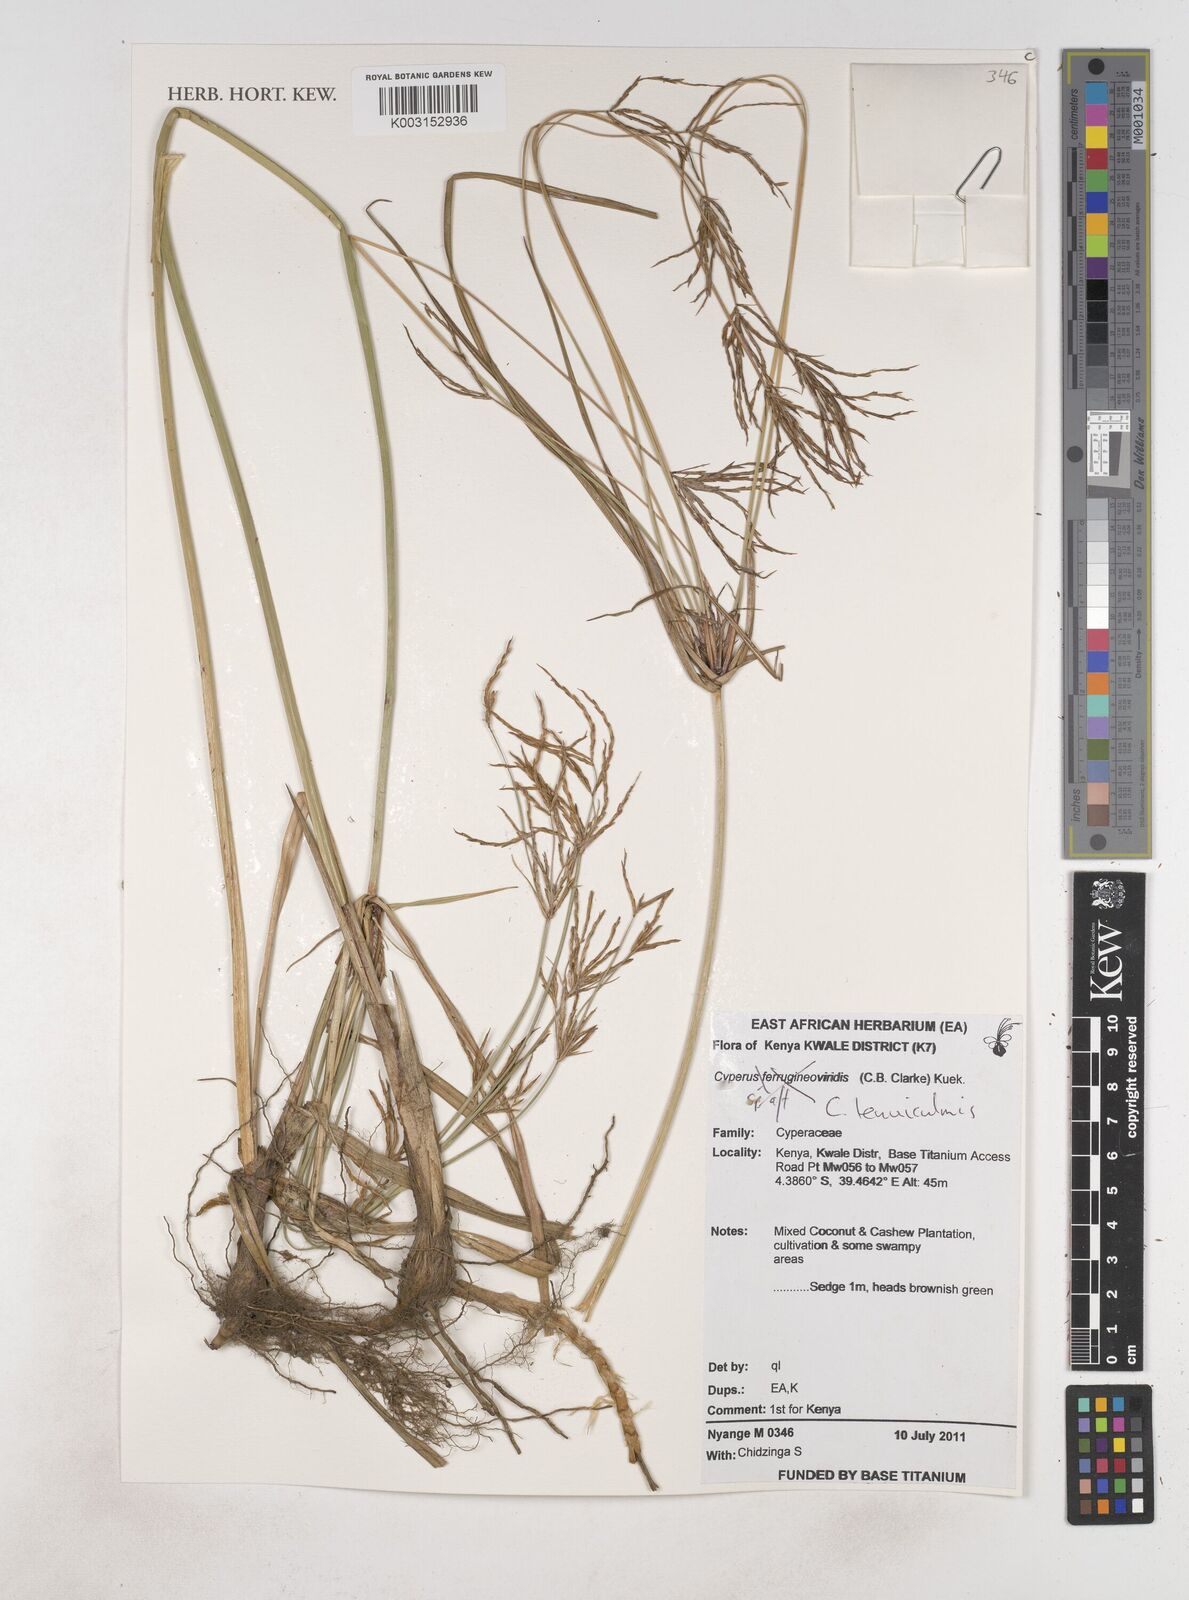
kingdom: Plantae
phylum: Tracheophyta
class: Liliopsida
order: Poales
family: Cyperaceae
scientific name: Cyperaceae
